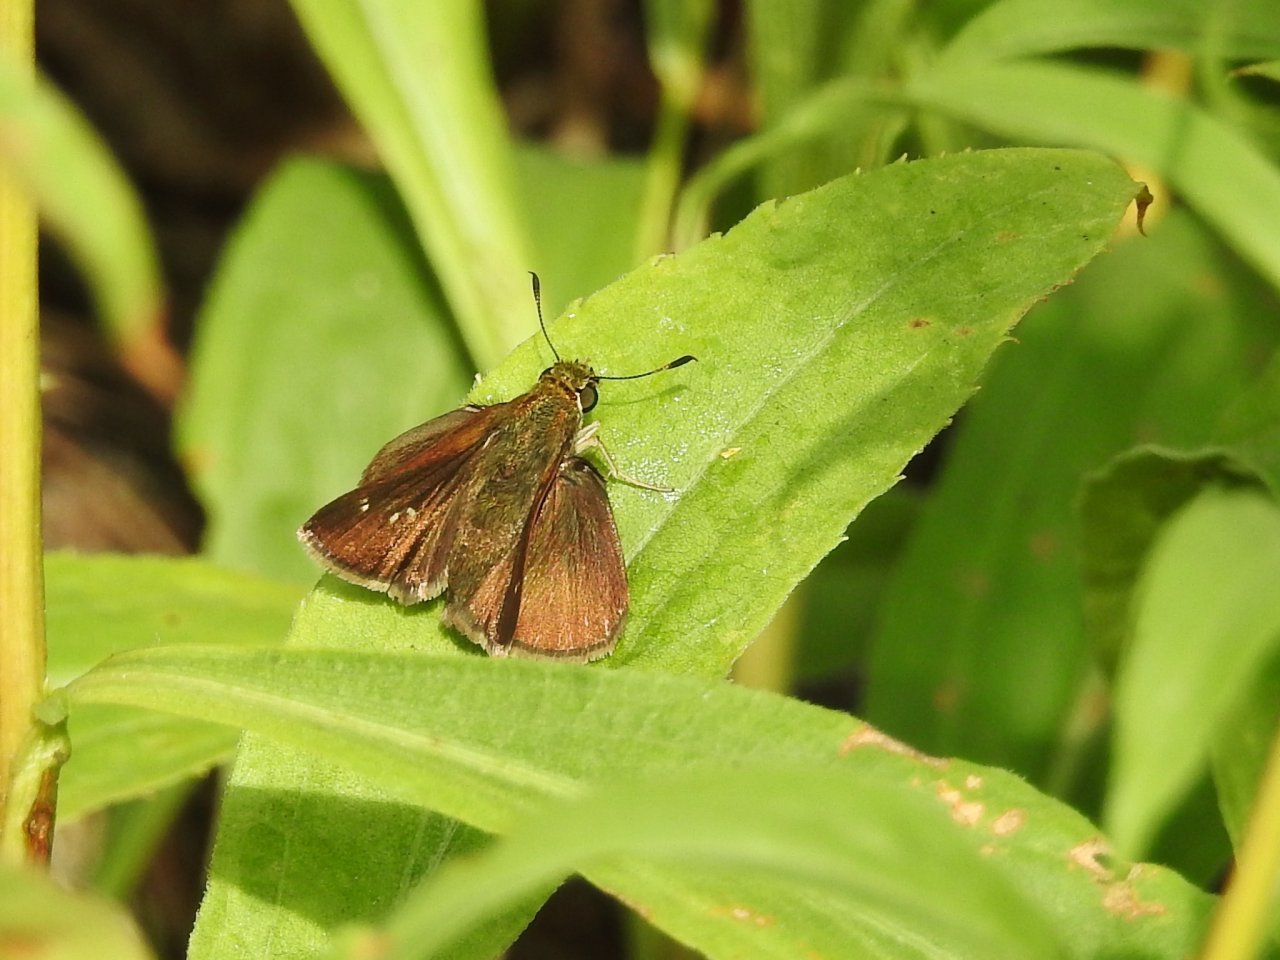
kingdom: Animalia
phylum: Arthropoda
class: Insecta
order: Lepidoptera
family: Hesperiidae
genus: Euphyes
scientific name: Euphyes vestris
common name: Dun Skipper
